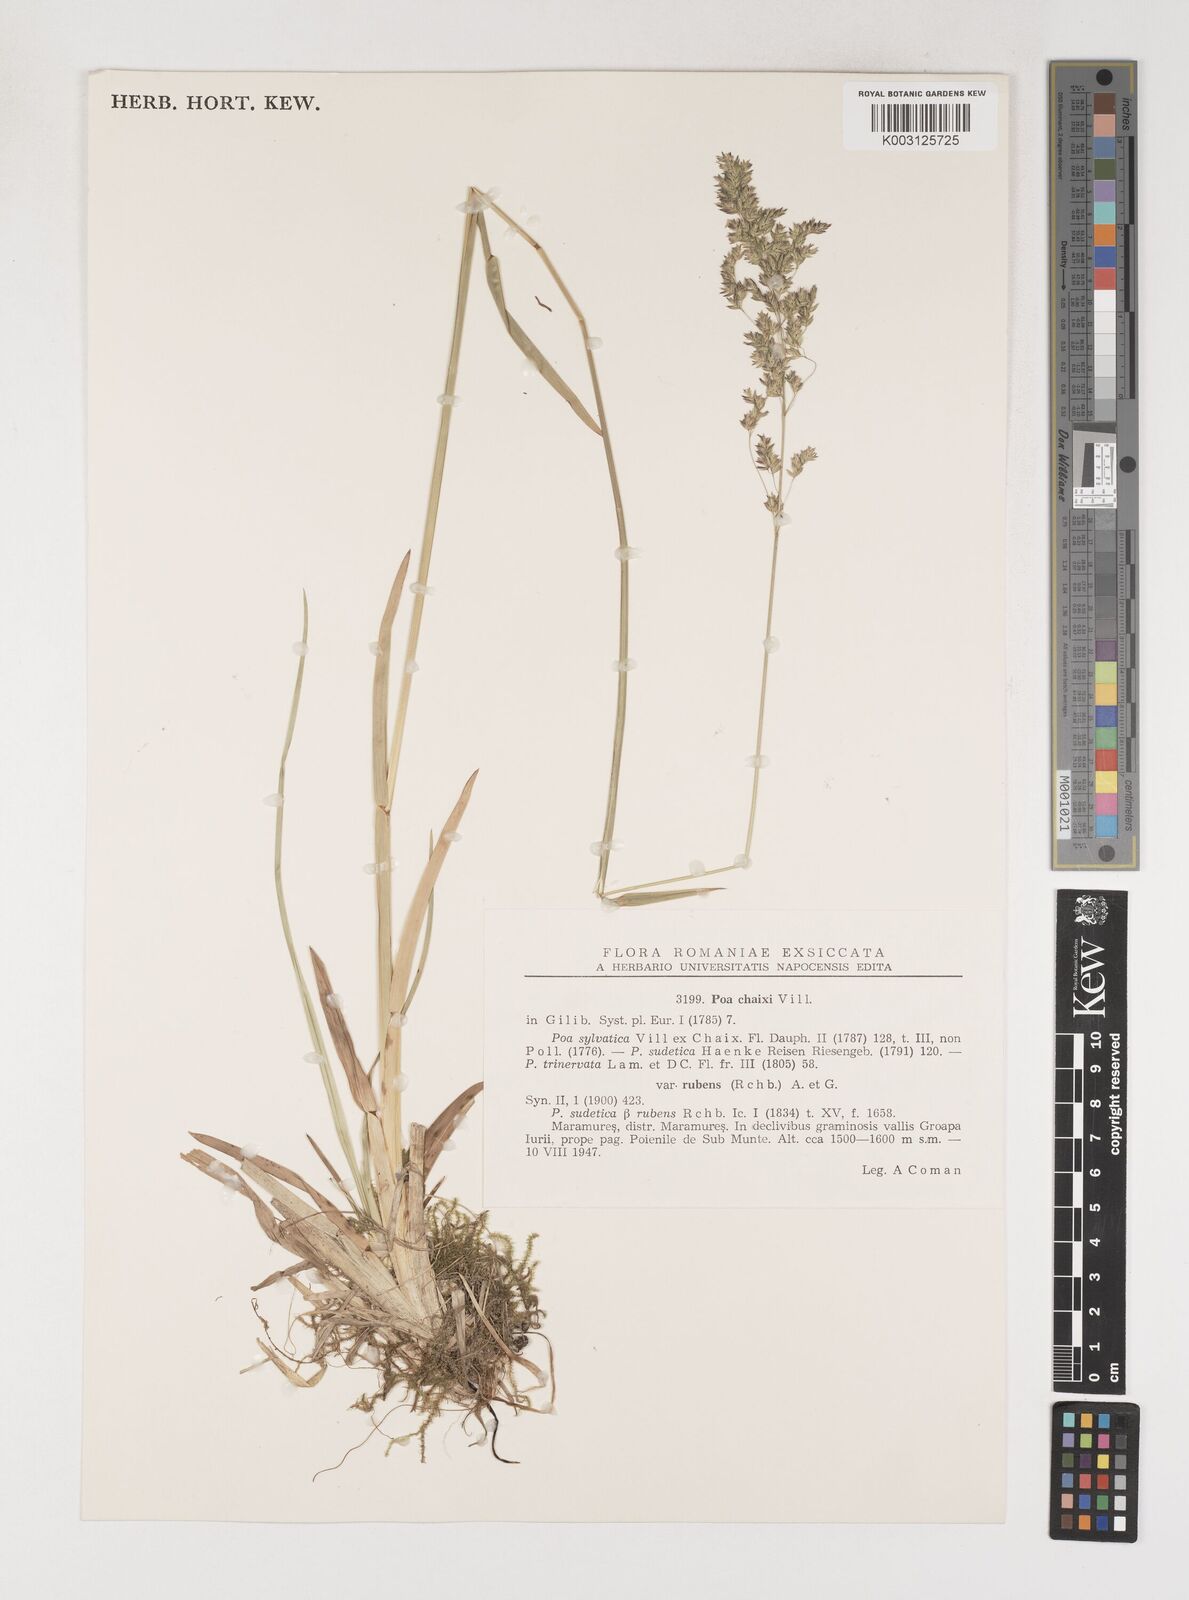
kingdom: Plantae
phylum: Tracheophyta
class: Liliopsida
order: Poales
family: Poaceae
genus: Poa
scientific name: Poa chaixii
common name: Broad-leaved meadow-grass
